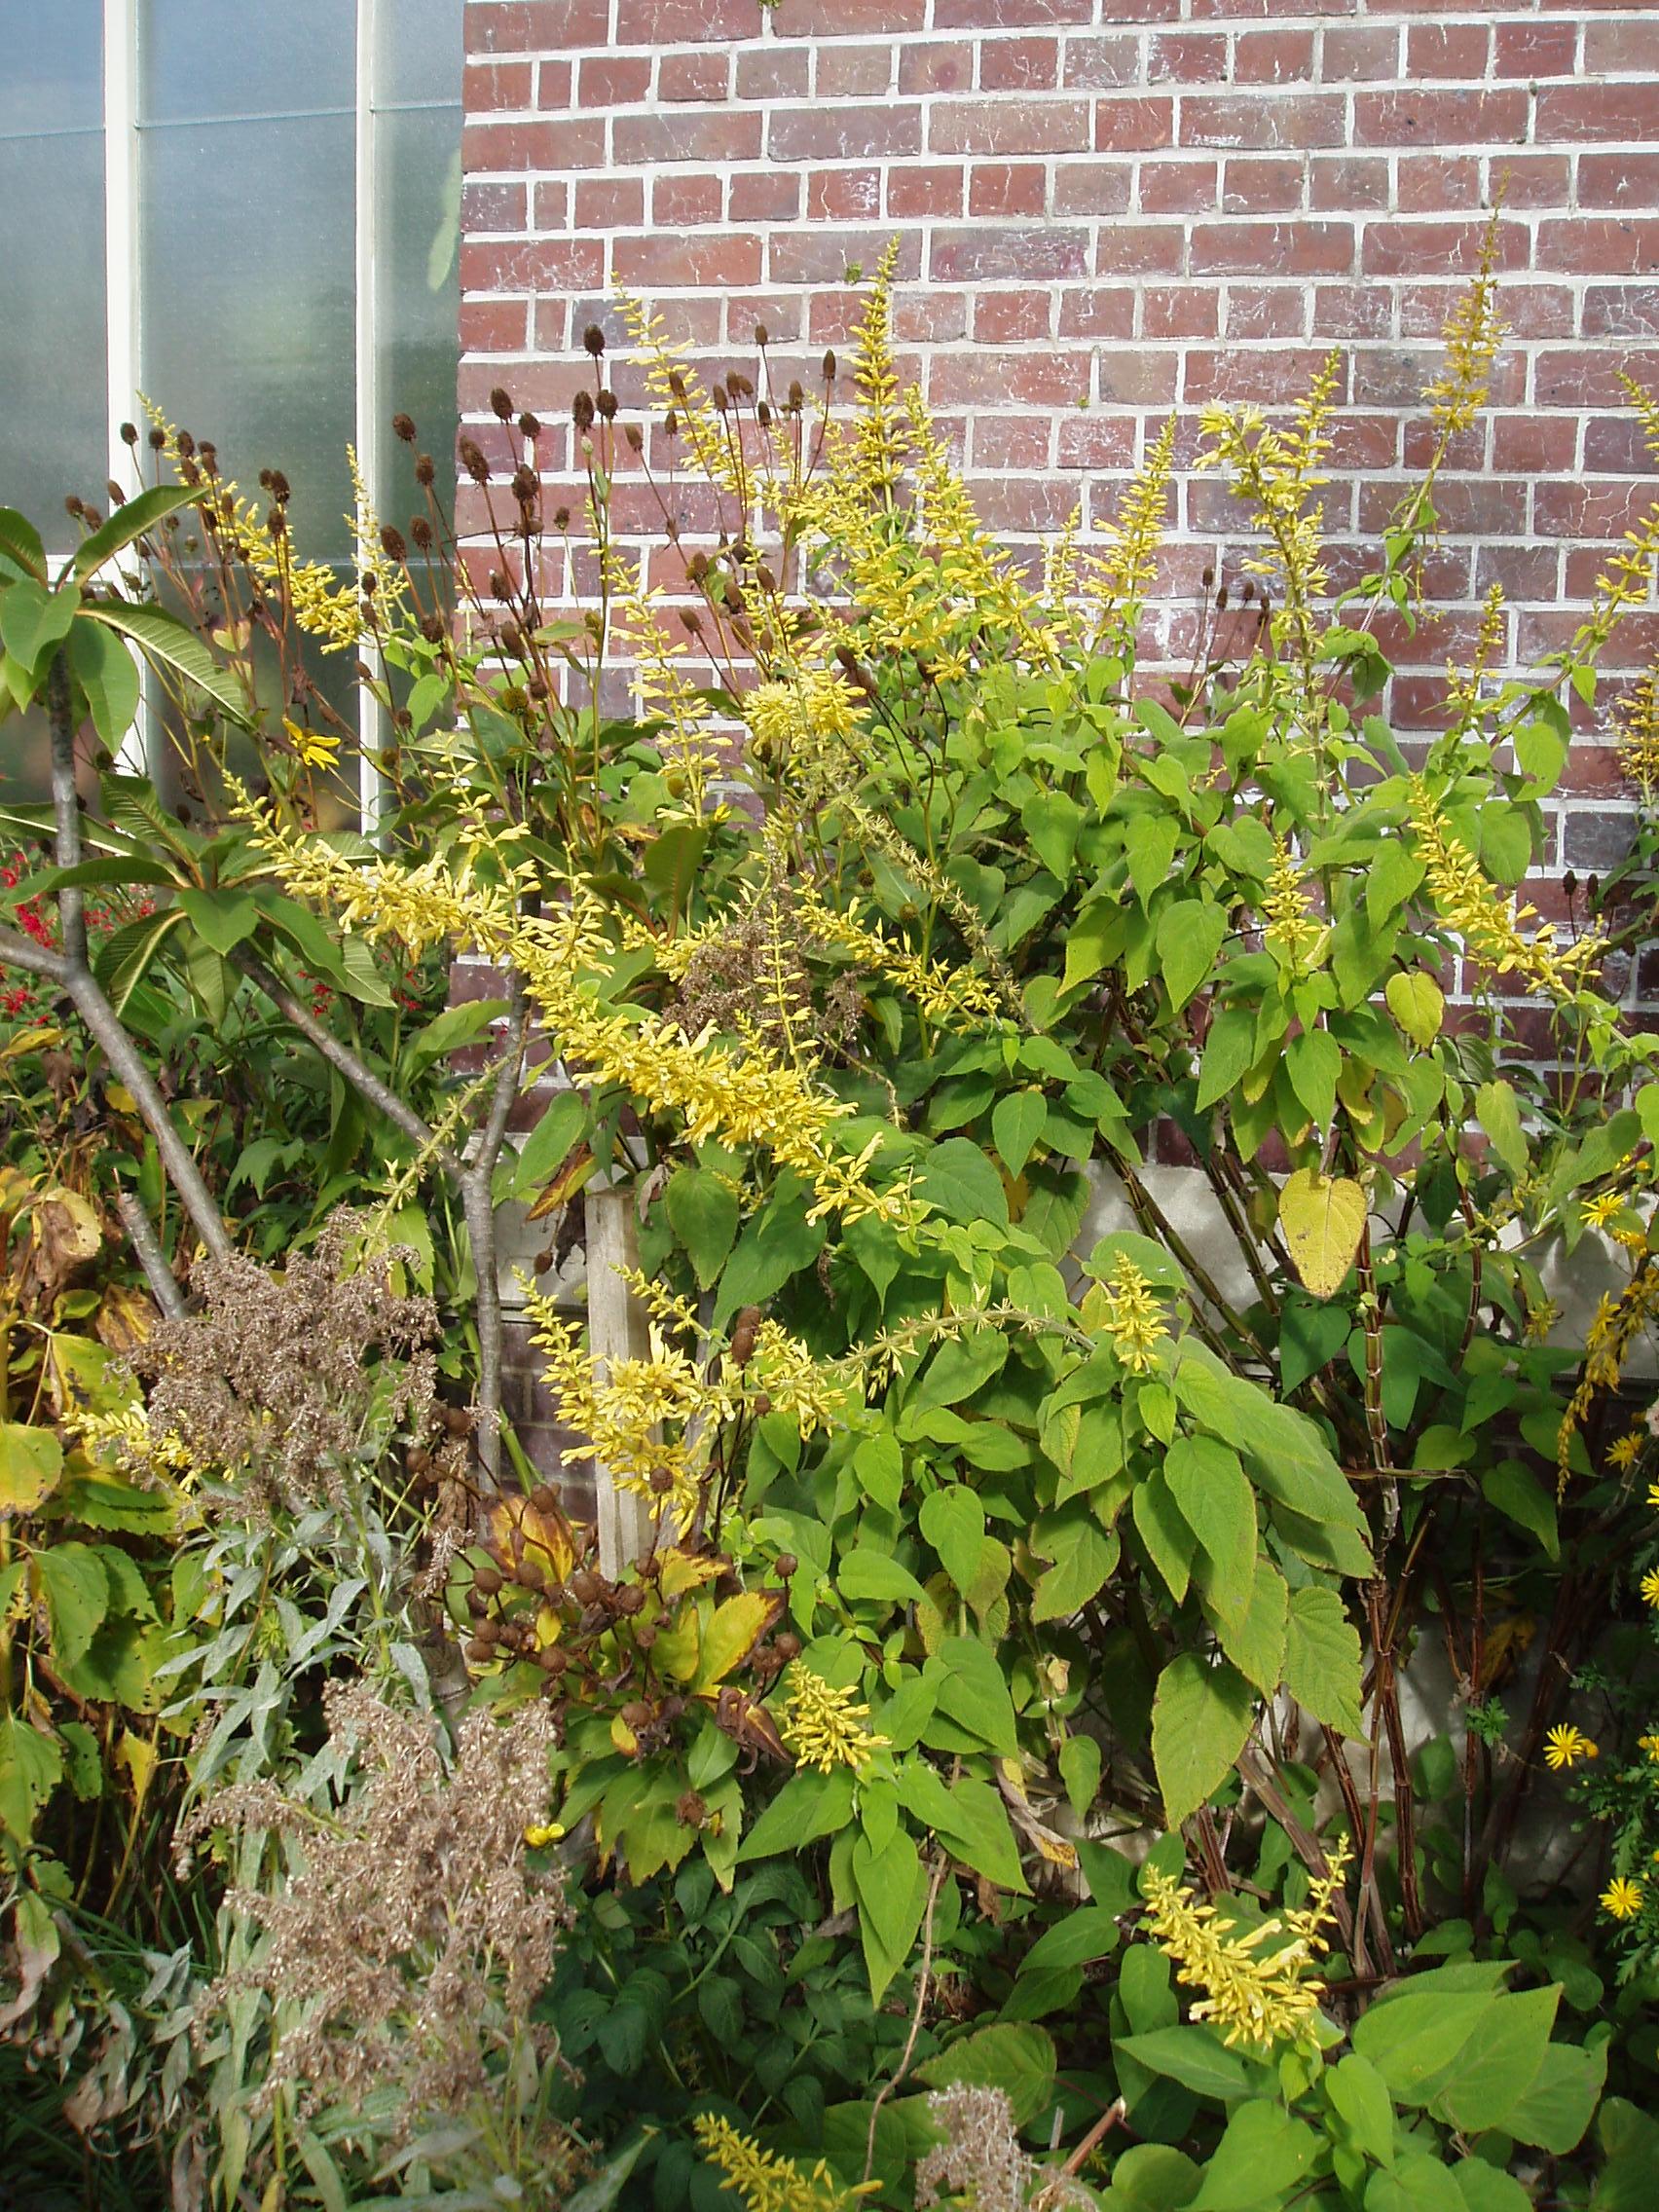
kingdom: Plantae
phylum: Tracheophyta
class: Magnoliopsida
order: Lamiales
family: Lamiaceae
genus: Salvia
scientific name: Salvia madrensis
